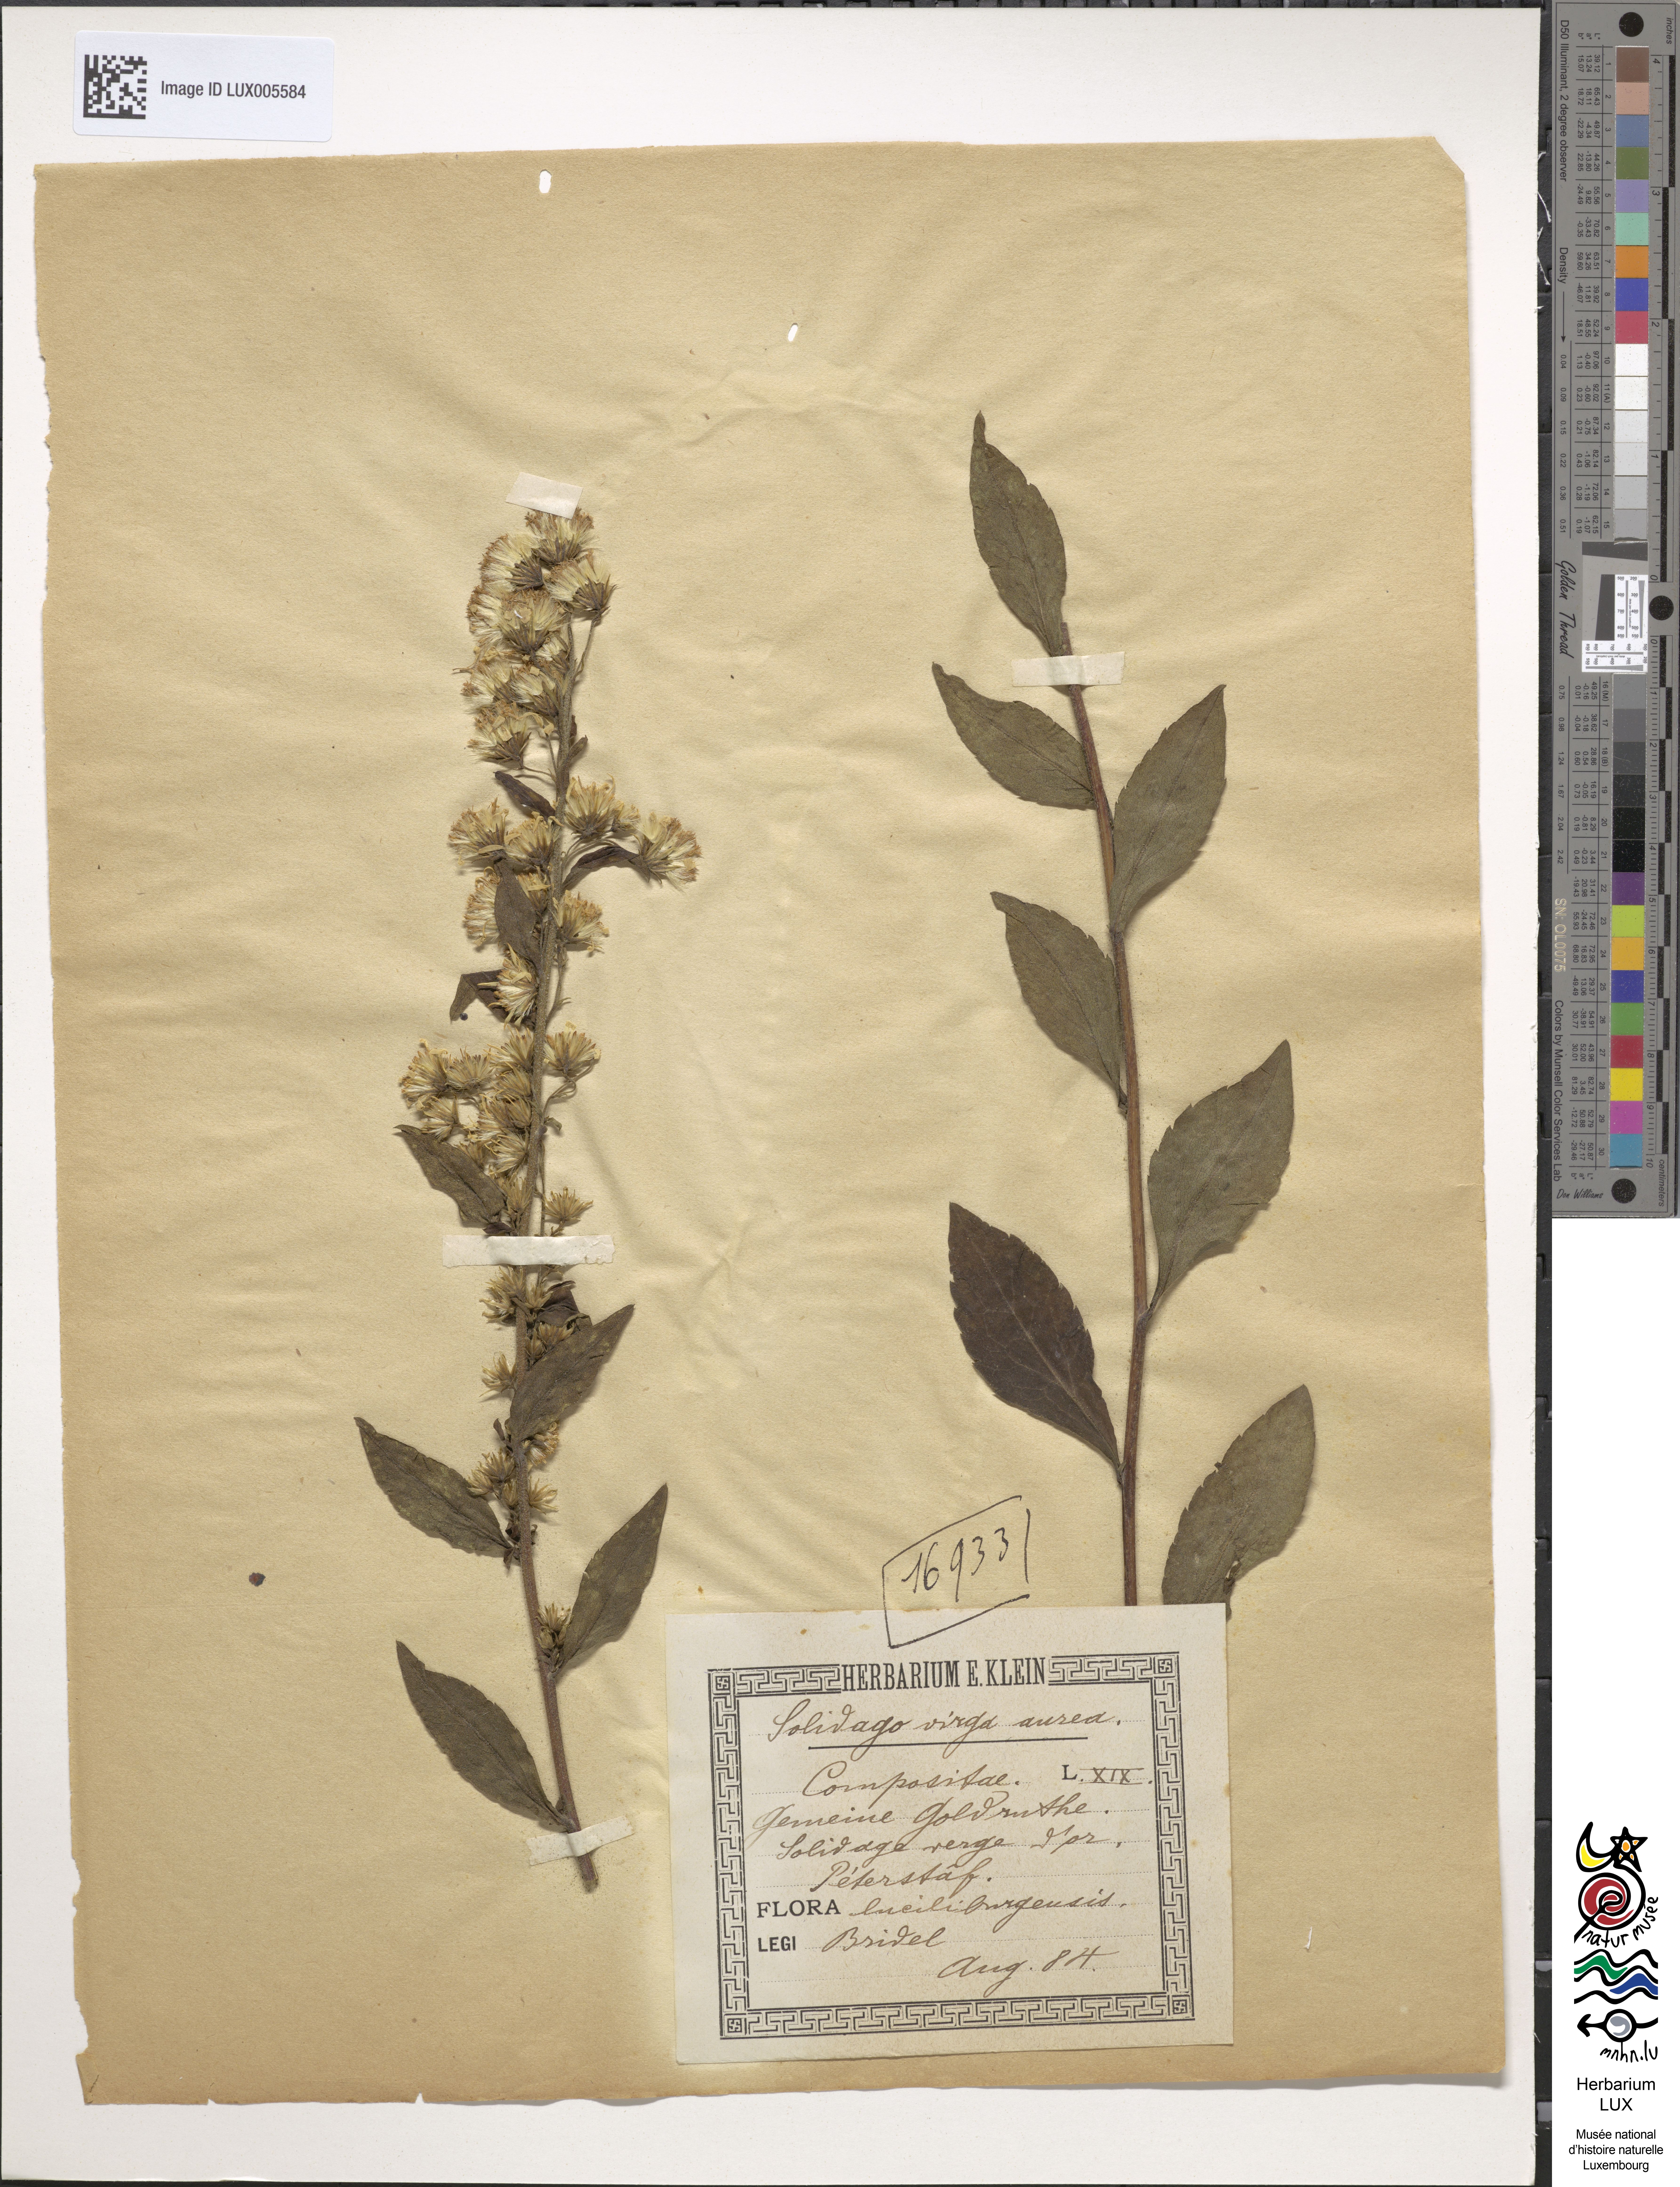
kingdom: Plantae
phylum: Tracheophyta
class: Magnoliopsida
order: Asterales
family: Asteraceae
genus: Solidago
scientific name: Solidago virgaurea
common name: Goldenrod
